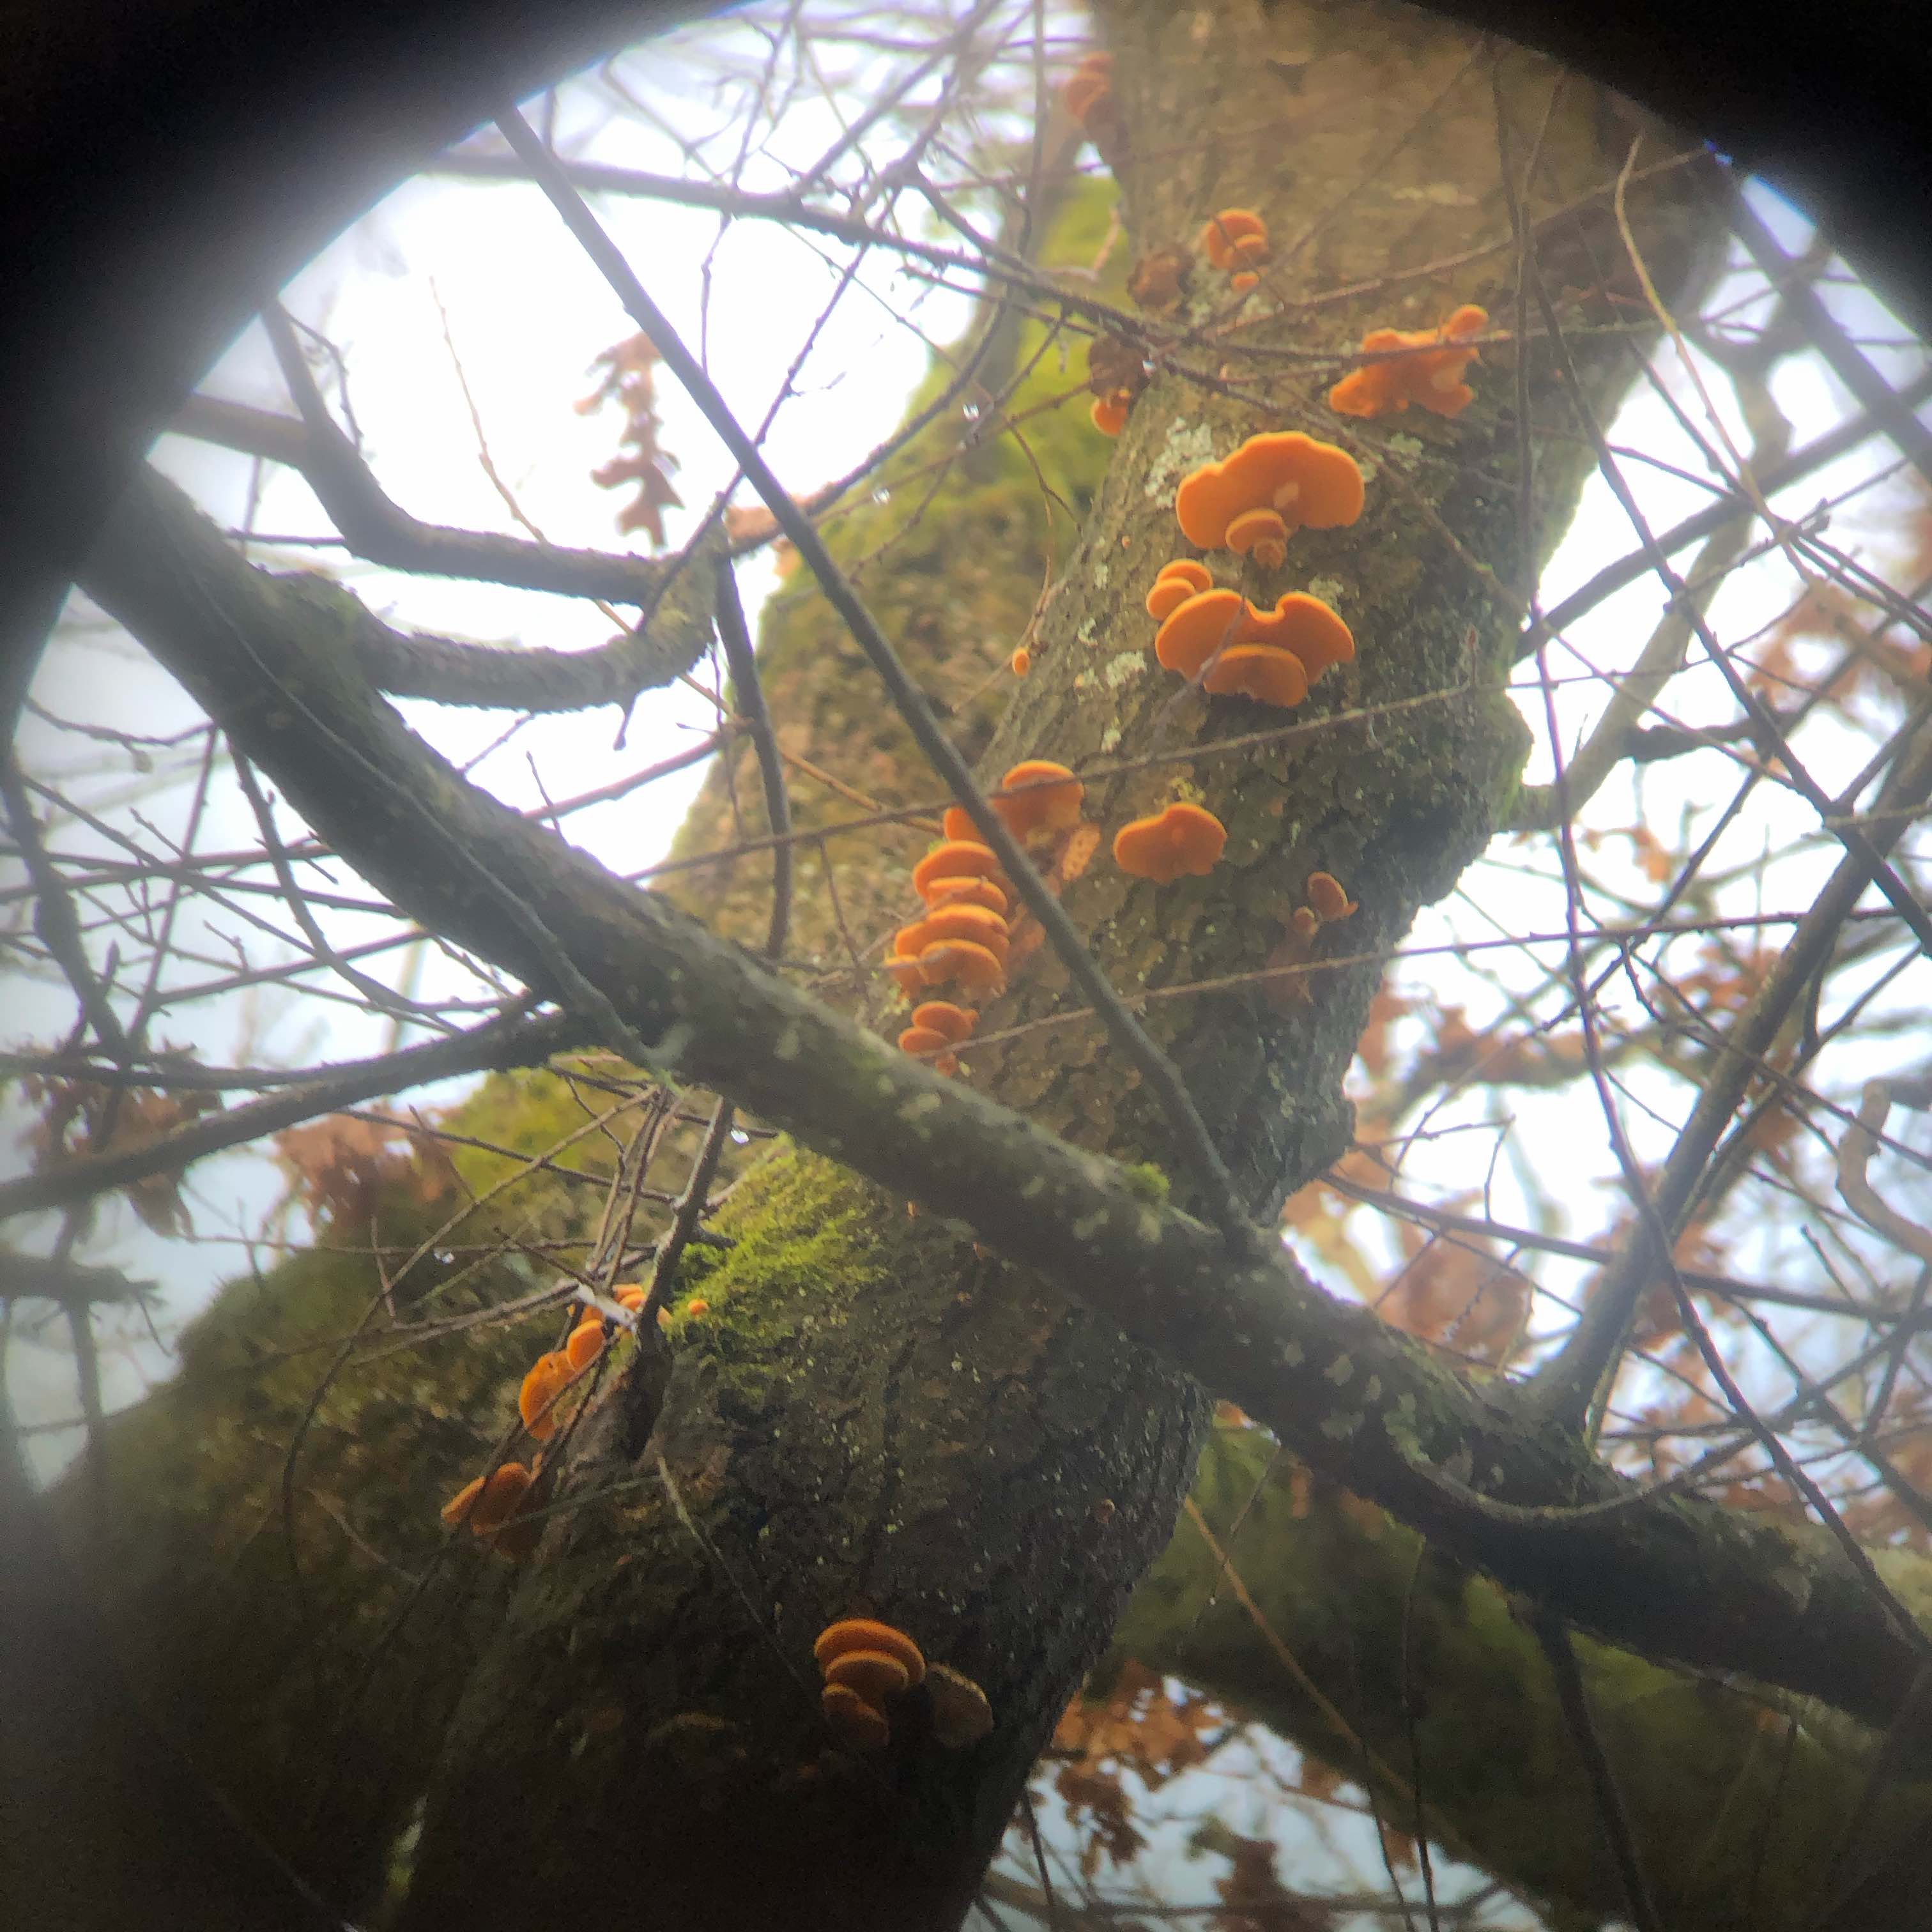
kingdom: Fungi
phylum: Basidiomycota
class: Agaricomycetes
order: Agaricales
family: Phyllotopsidaceae
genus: Phyllotopsis
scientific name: Phyllotopsis nidulans
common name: okkerblad
